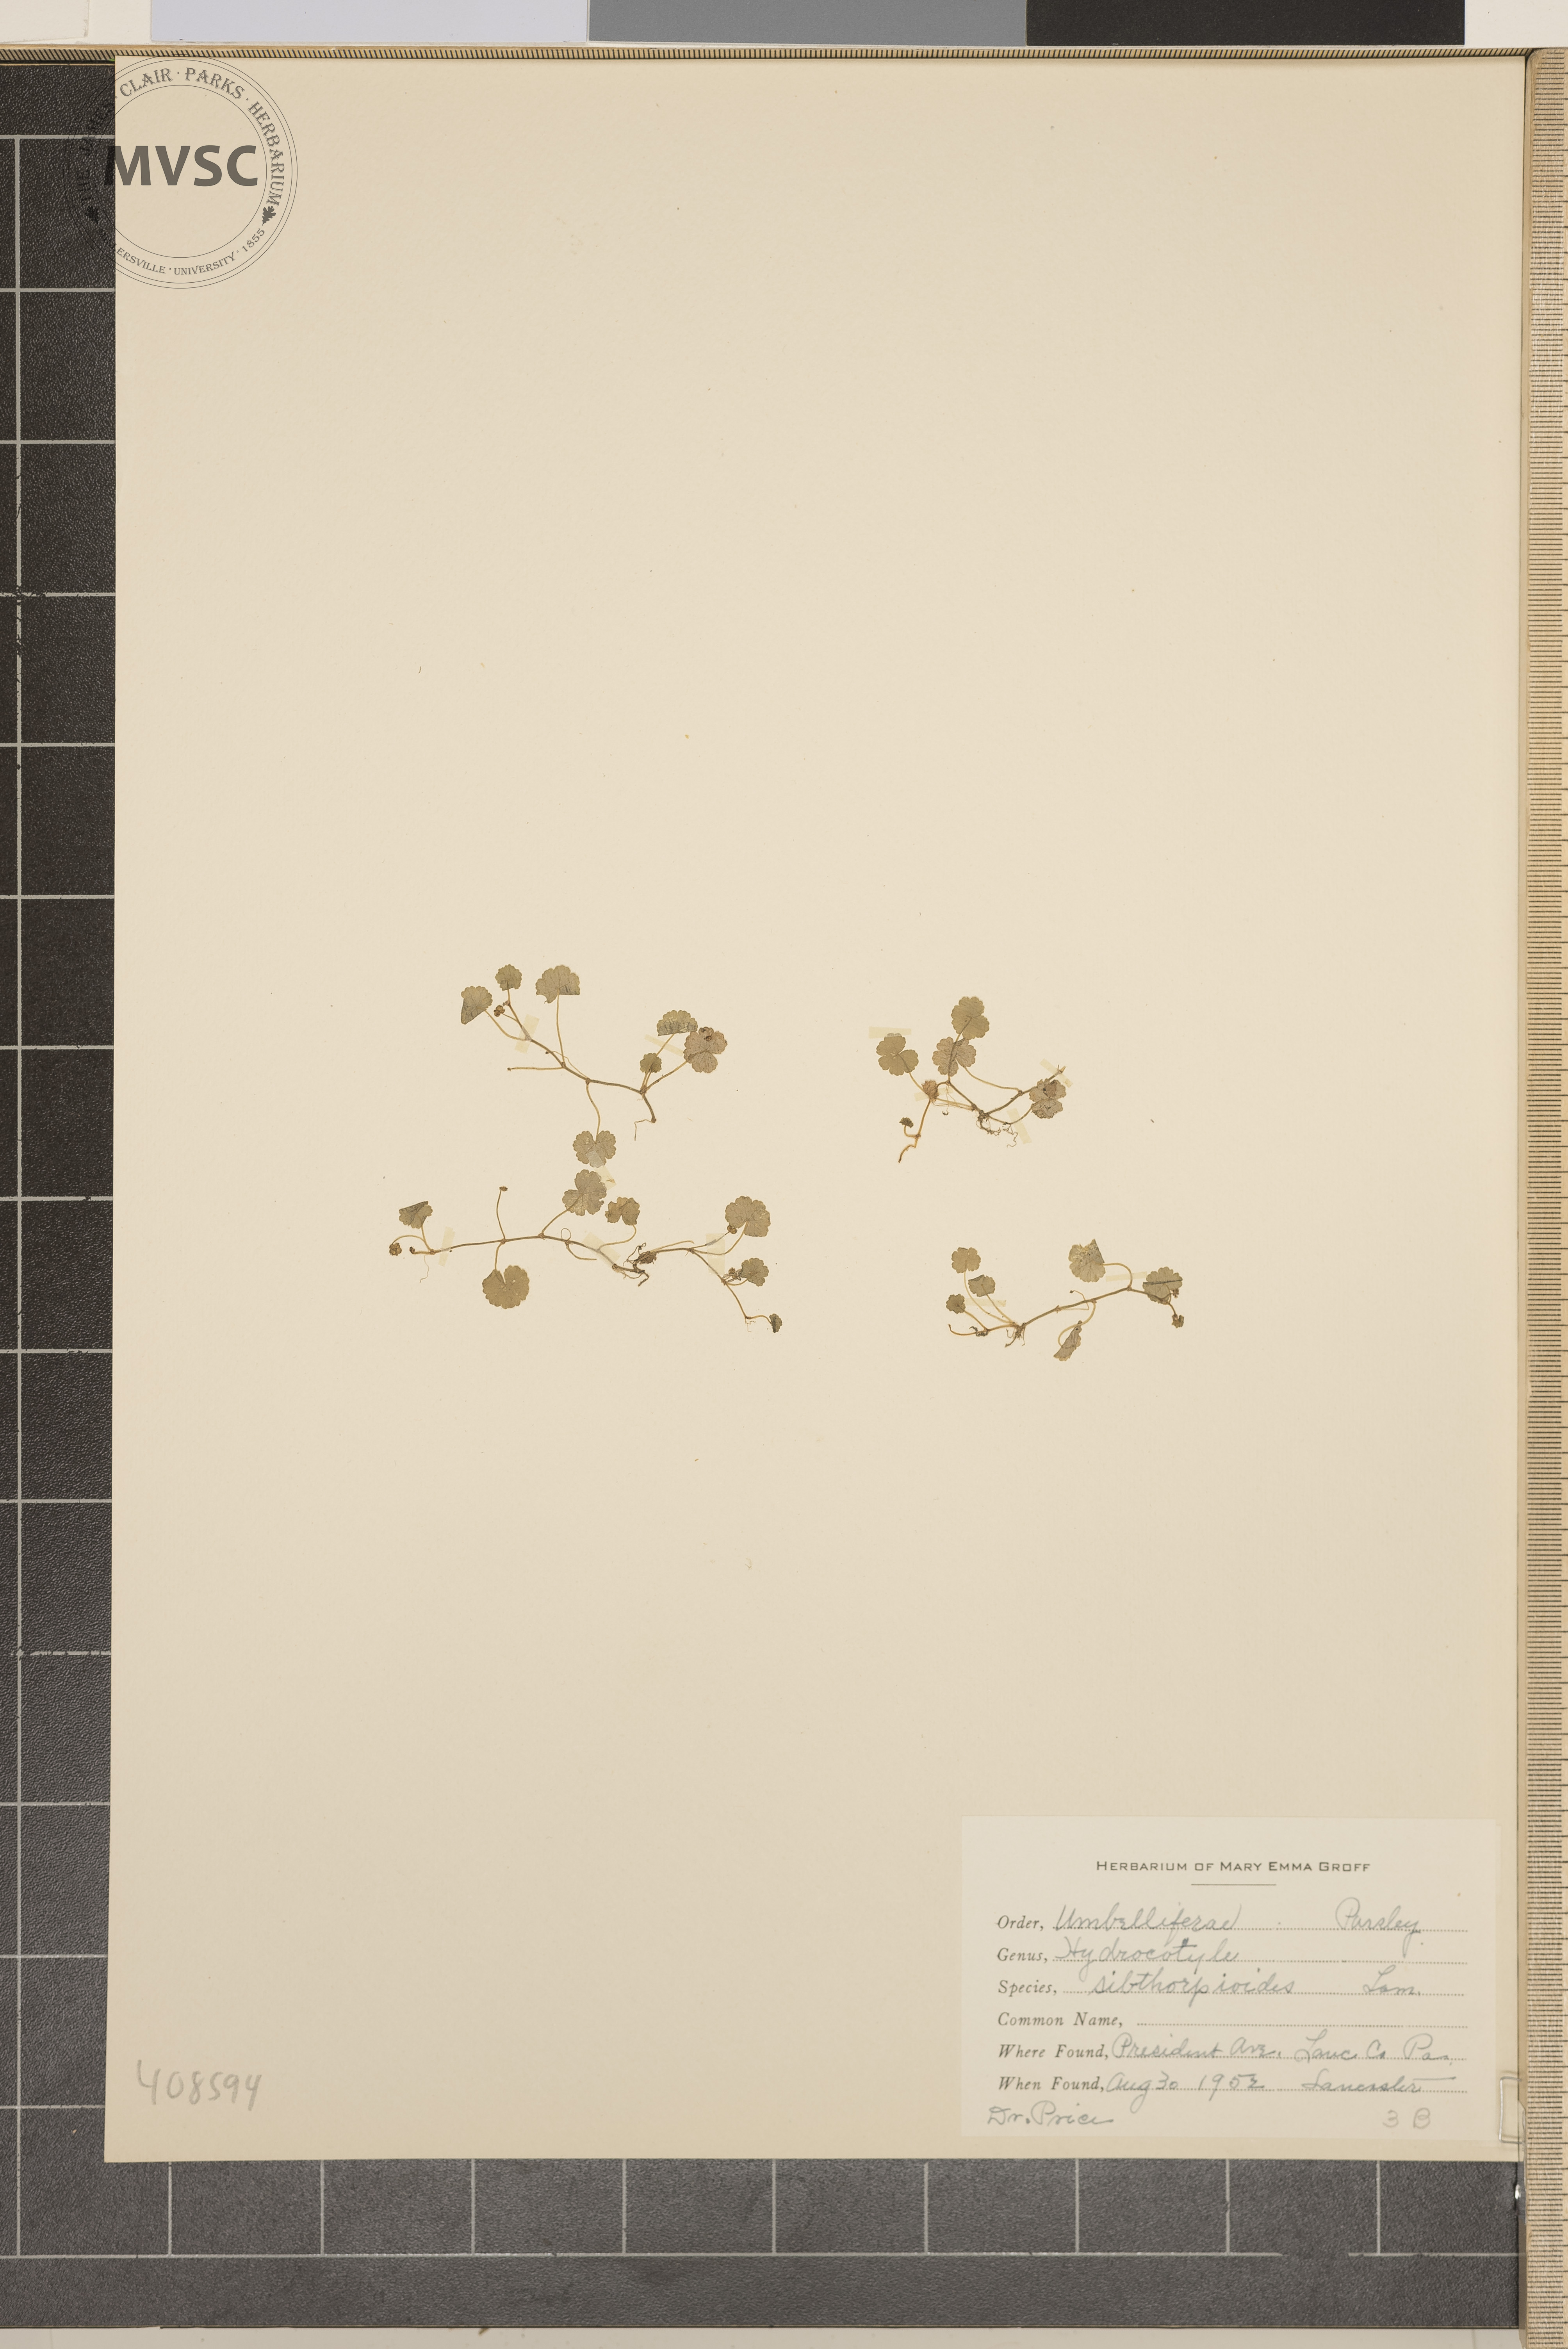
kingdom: Plantae
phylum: Tracheophyta
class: Magnoliopsida
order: Apiales
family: Araliaceae
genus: Hydrocotyle
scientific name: Hydrocotyle sibthorpioides
